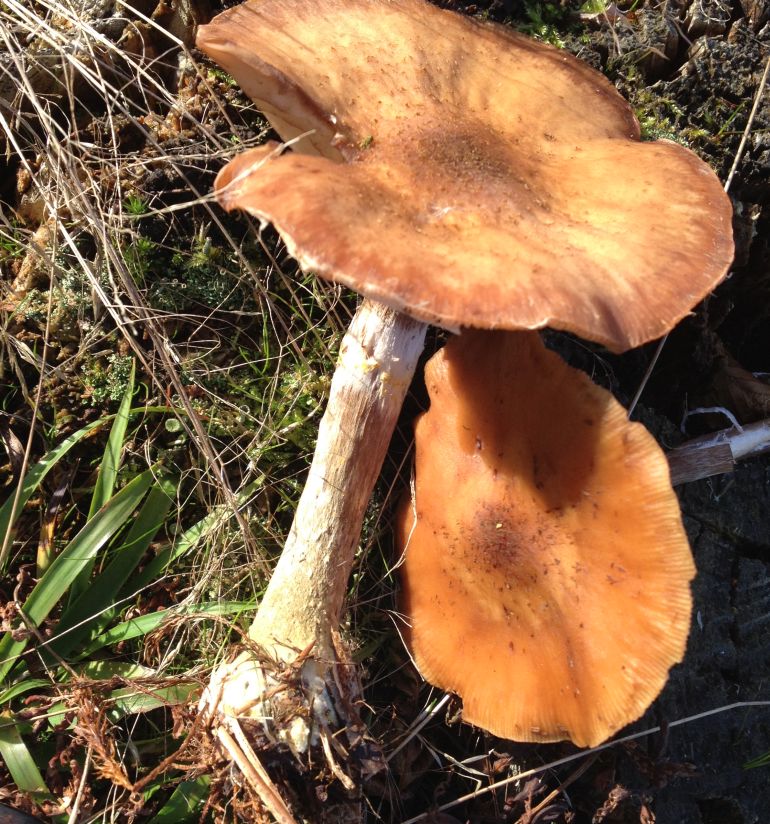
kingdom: Fungi
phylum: Basidiomycota
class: Agaricomycetes
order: Agaricales
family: Physalacriaceae
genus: Armillaria
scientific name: Armillaria lutea
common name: køllestokket honningsvamp
